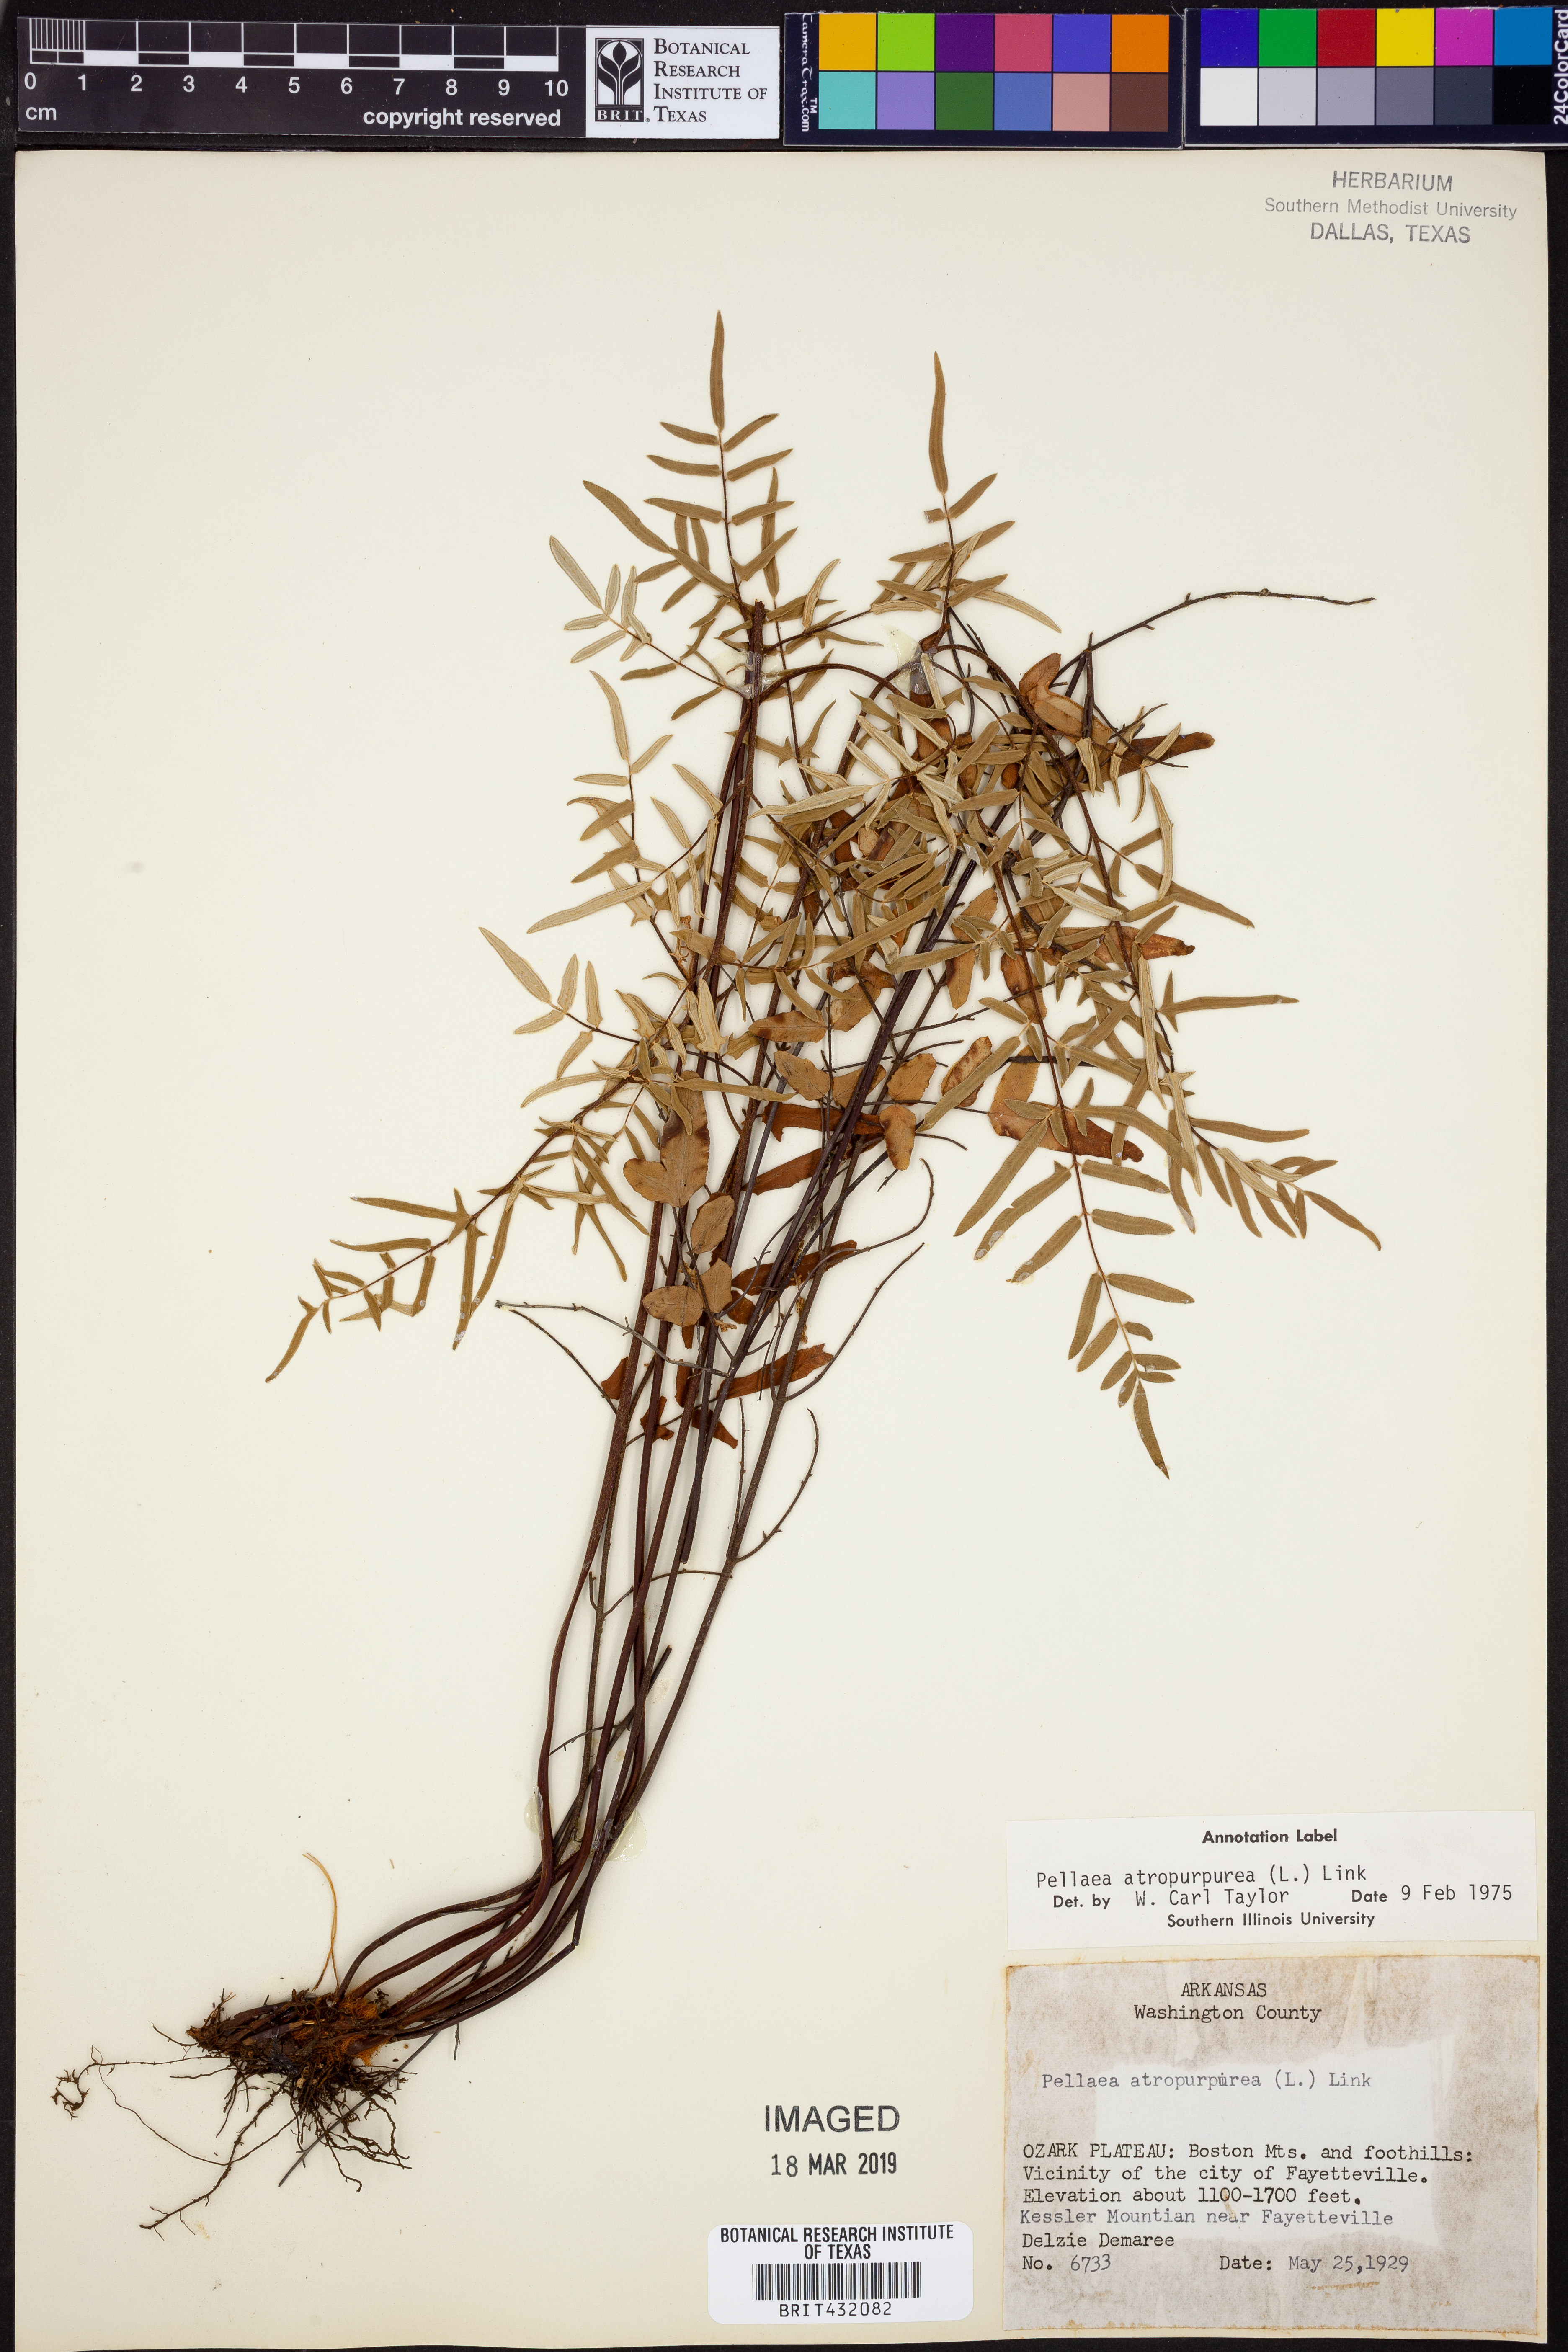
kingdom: Plantae
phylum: Tracheophyta
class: Polypodiopsida
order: Polypodiales
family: Pteridaceae
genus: Pellaea
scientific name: Pellaea atropurpurea
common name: Hairy cliffbrake
